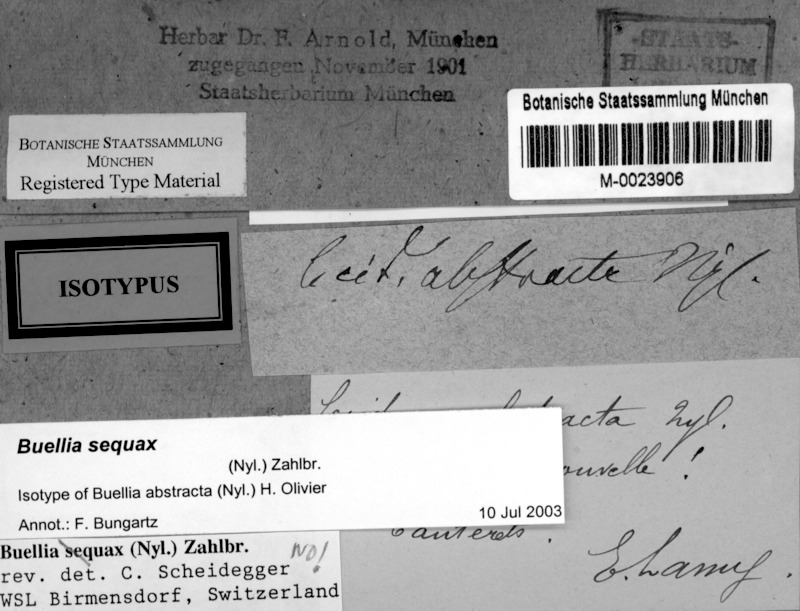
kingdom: Fungi
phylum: Ascomycota
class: Lecanoromycetes
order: Caliciales
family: Caliciaceae
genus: Buellia
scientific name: Buellia sequax
